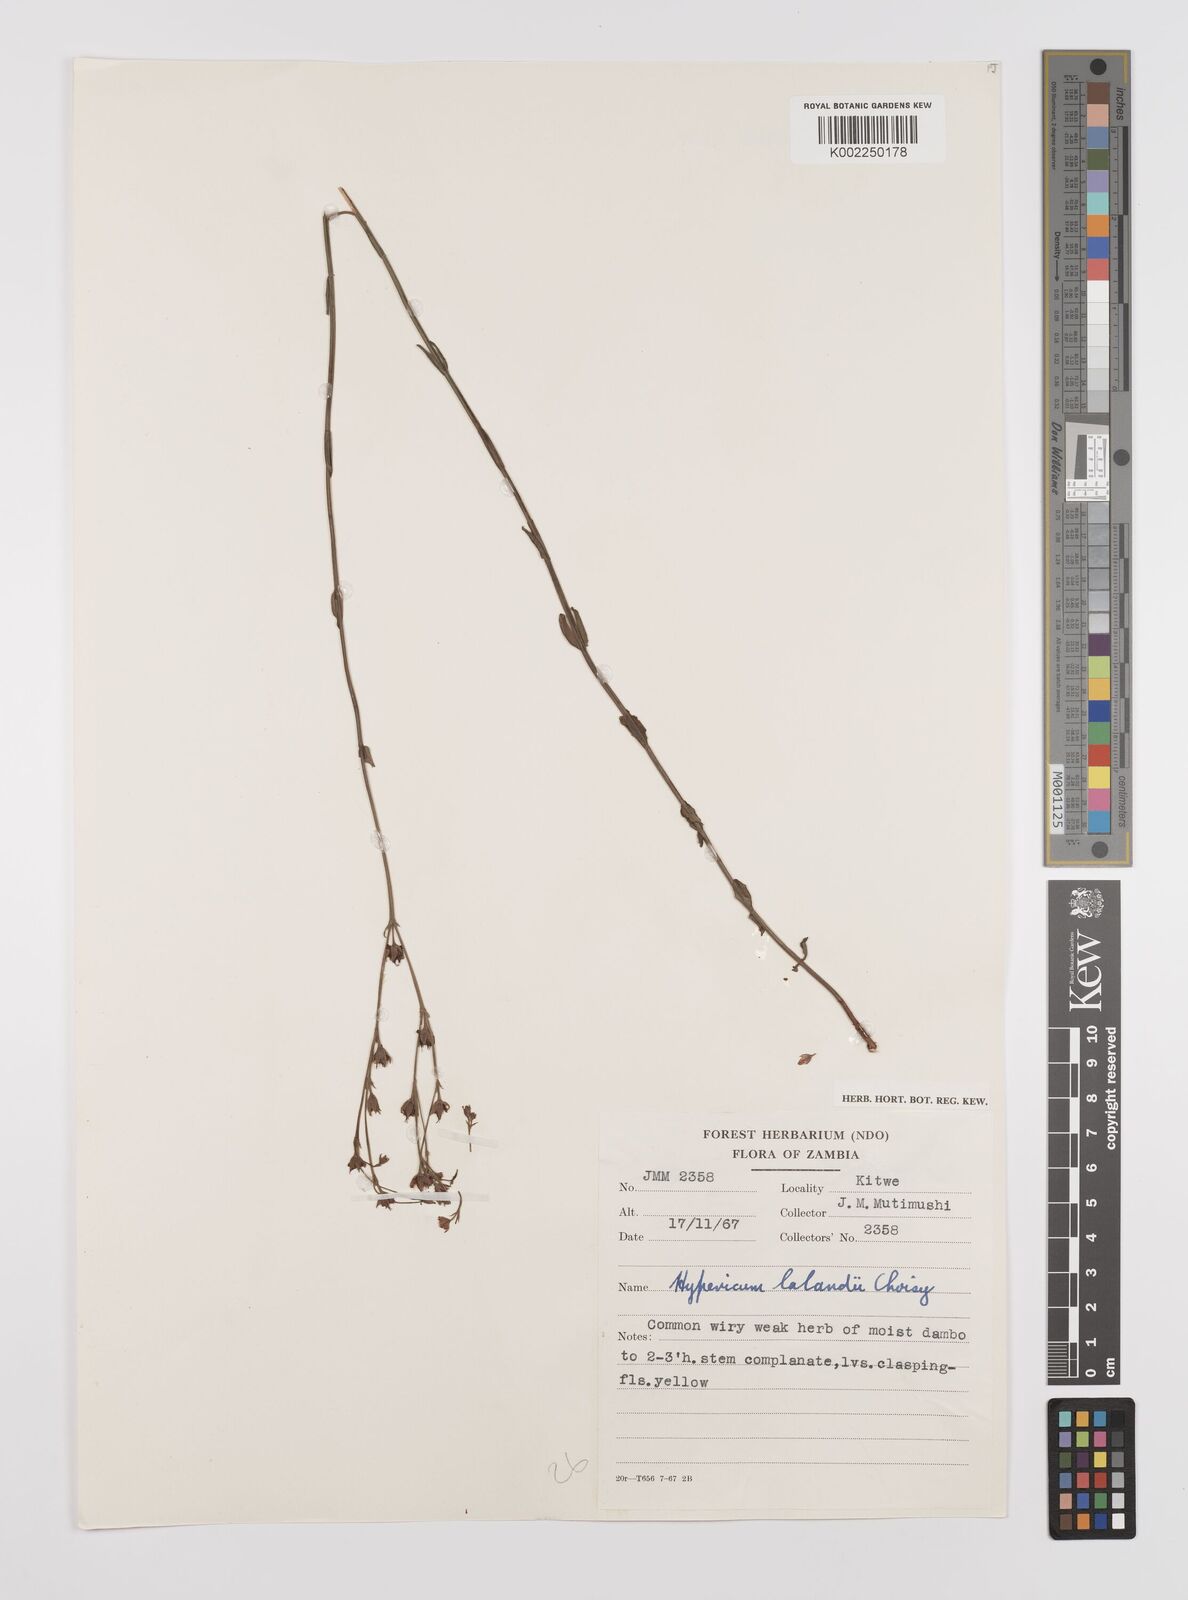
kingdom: Plantae
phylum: Tracheophyta
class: Magnoliopsida
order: Malpighiales
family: Hypericaceae
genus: Hypericum
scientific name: Hypericum lalandii
